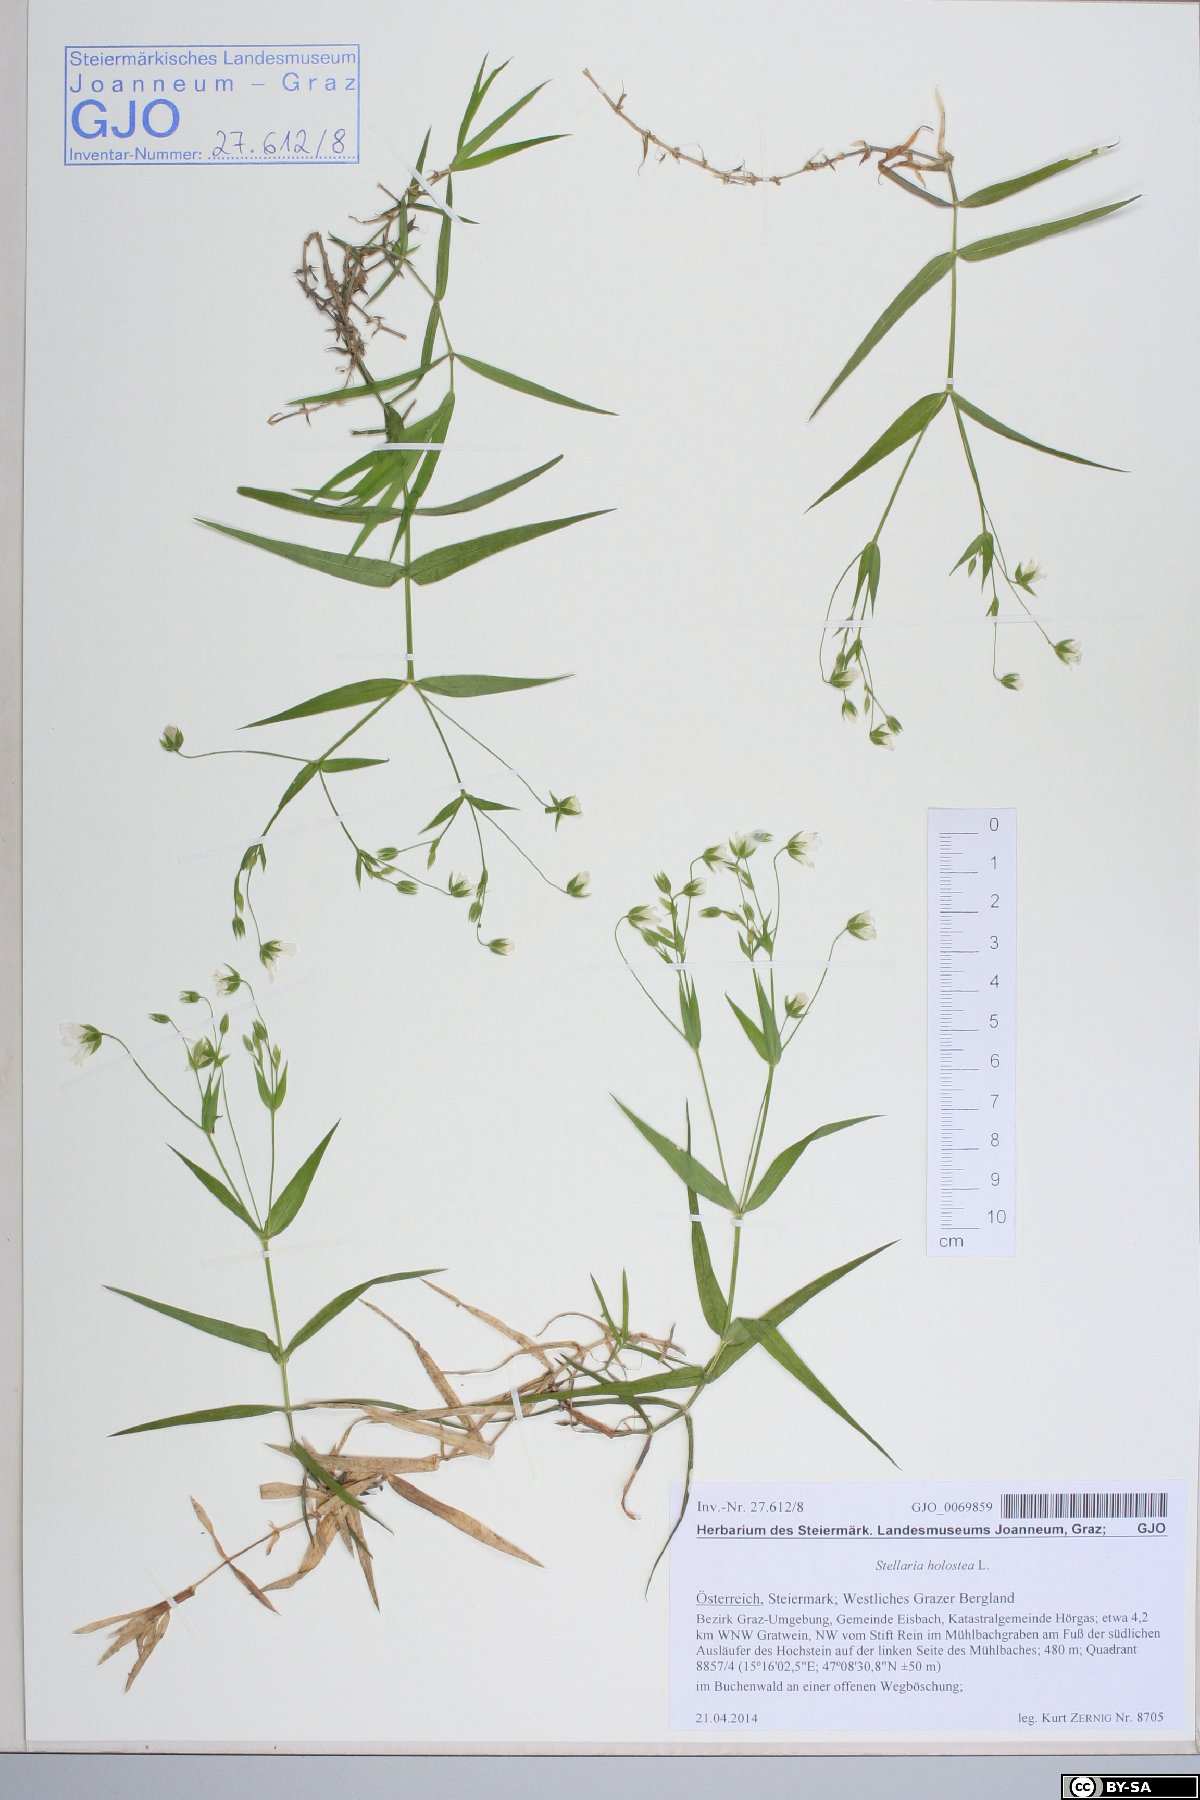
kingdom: Plantae
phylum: Tracheophyta
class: Magnoliopsida
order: Caryophyllales
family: Caryophyllaceae
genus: Rabelera
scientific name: Rabelera holostea
